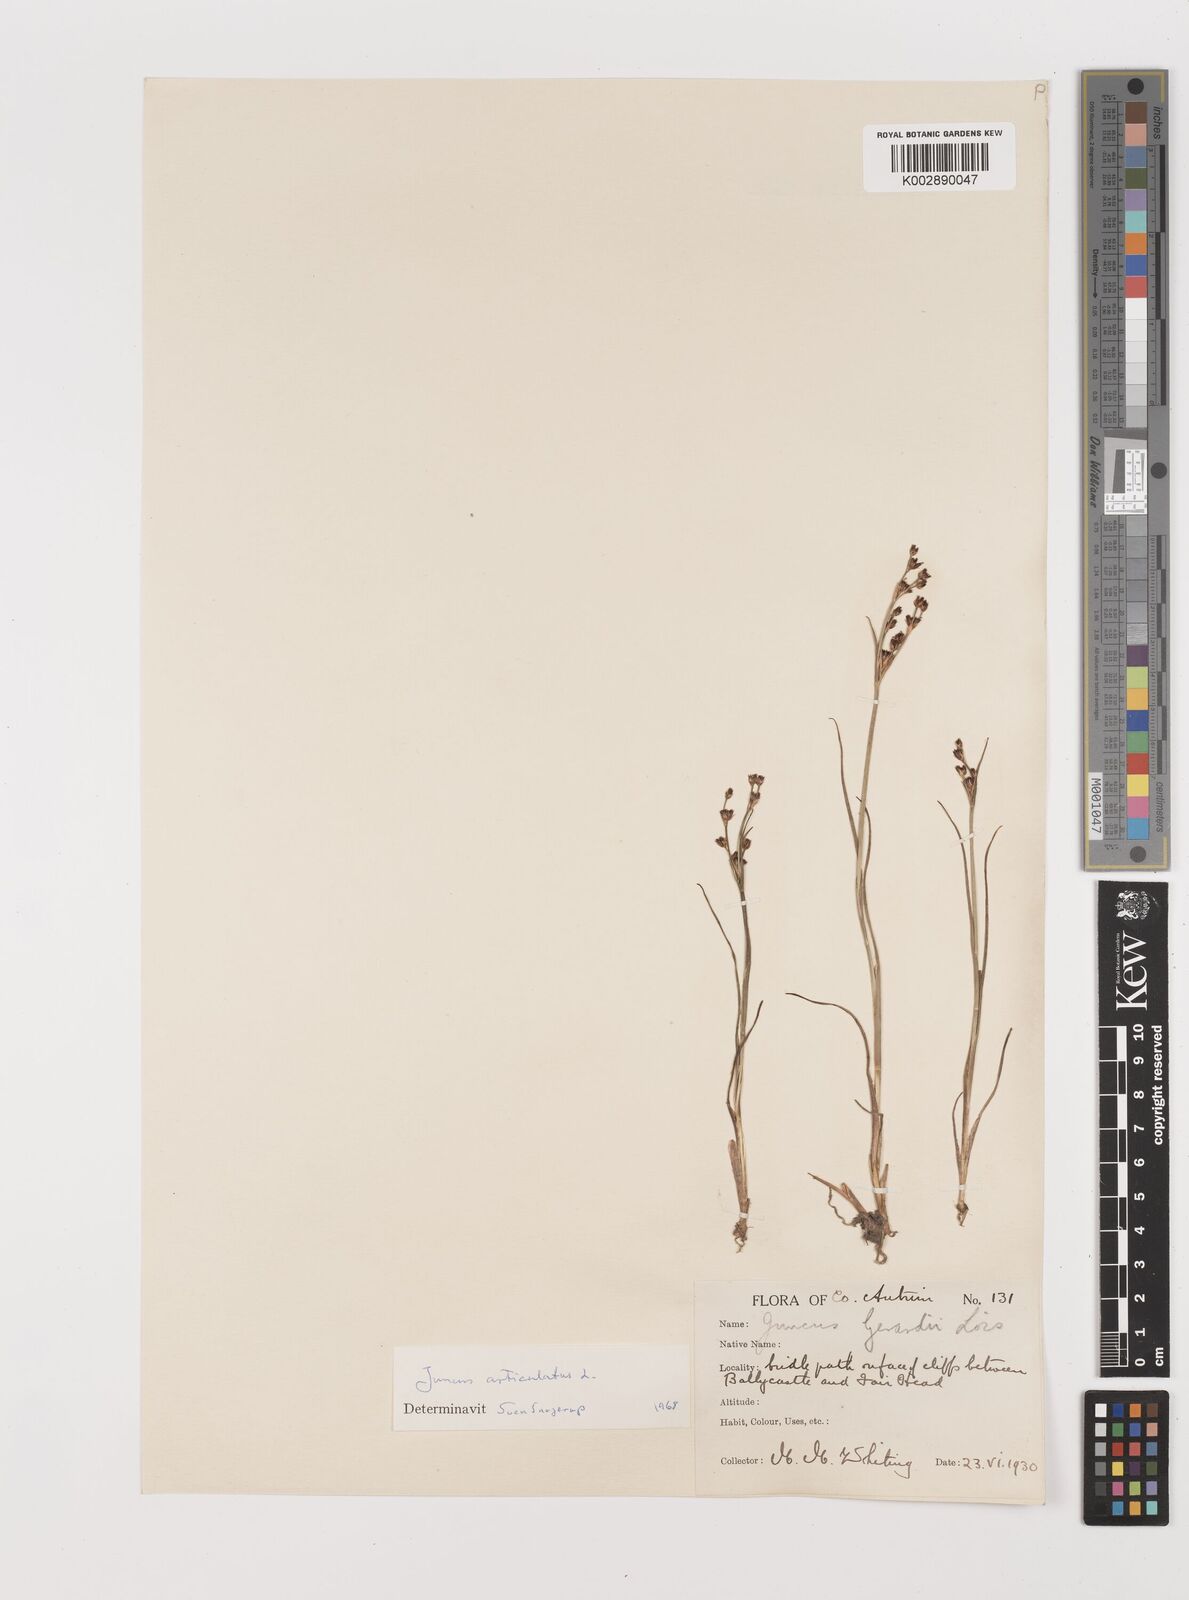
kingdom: Plantae
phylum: Tracheophyta
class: Liliopsida
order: Poales
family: Juncaceae
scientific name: Juncaceae
